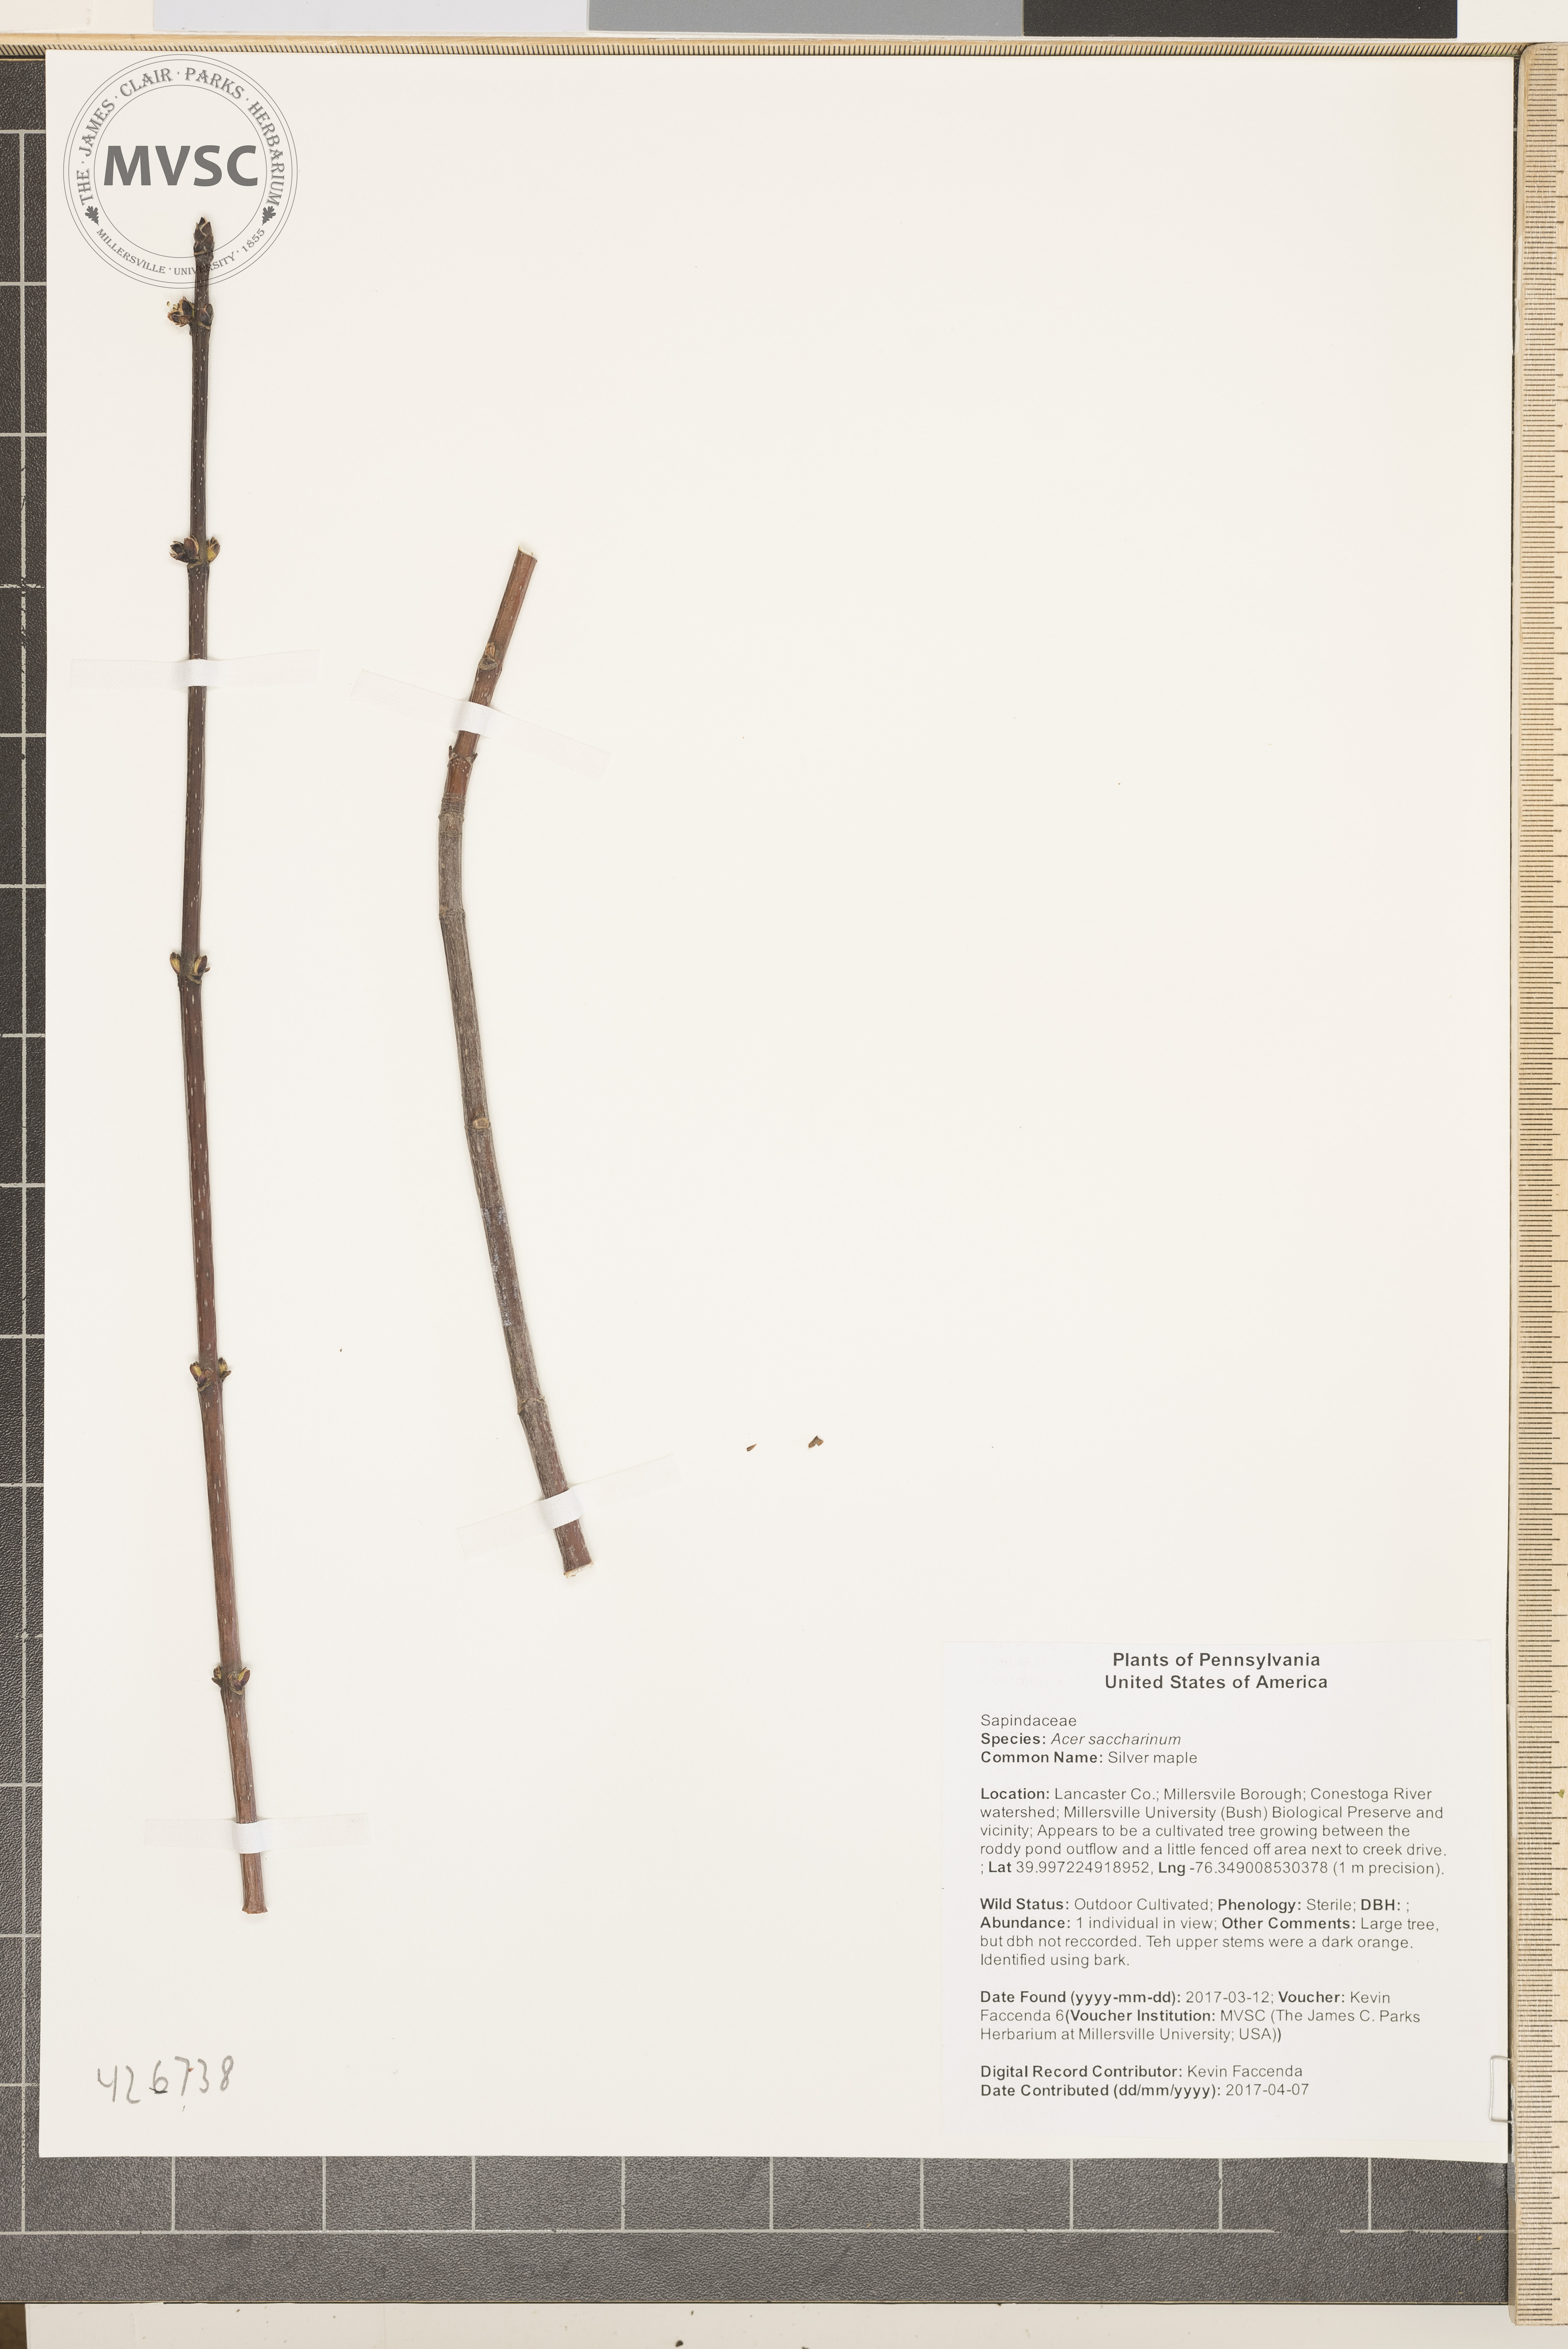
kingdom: Plantae
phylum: Tracheophyta
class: Magnoliopsida
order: Sapindales
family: Sapindaceae
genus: Acer
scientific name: Acer saccharinum
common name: Silver maple
